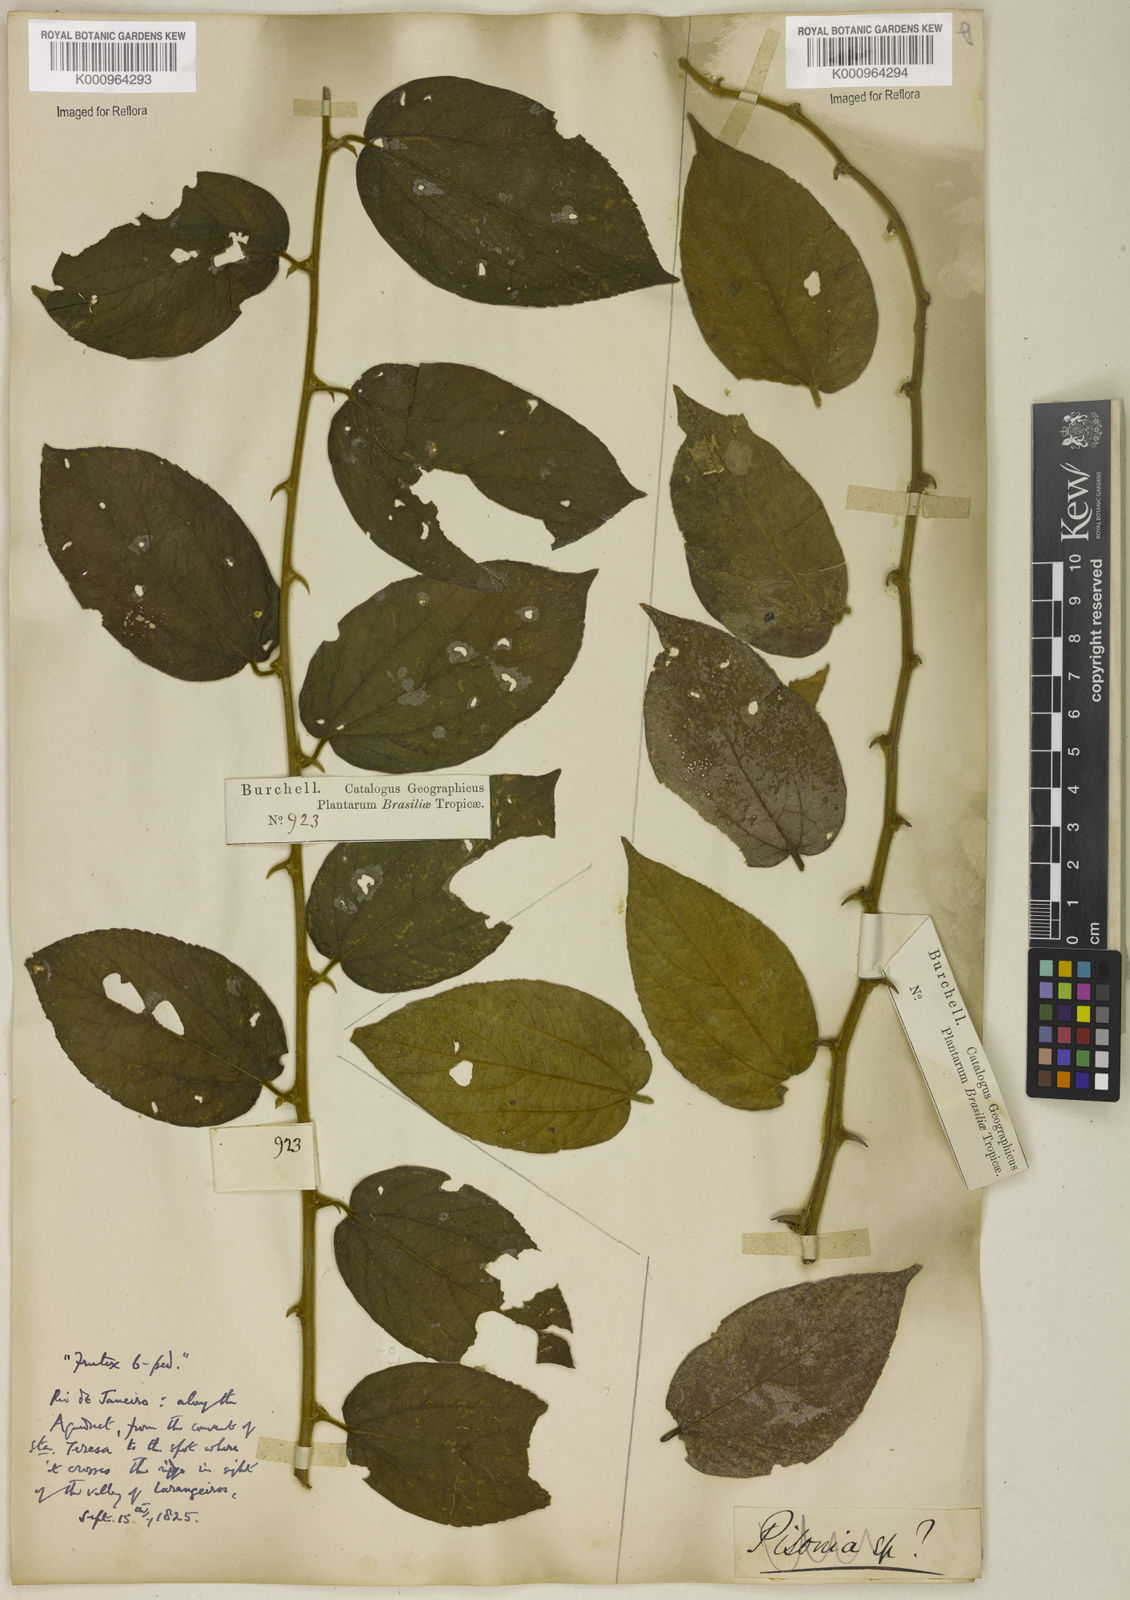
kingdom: Plantae
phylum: Tracheophyta
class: Magnoliopsida
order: Rosales
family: Cannabaceae
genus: Celtis
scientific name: Celtis
